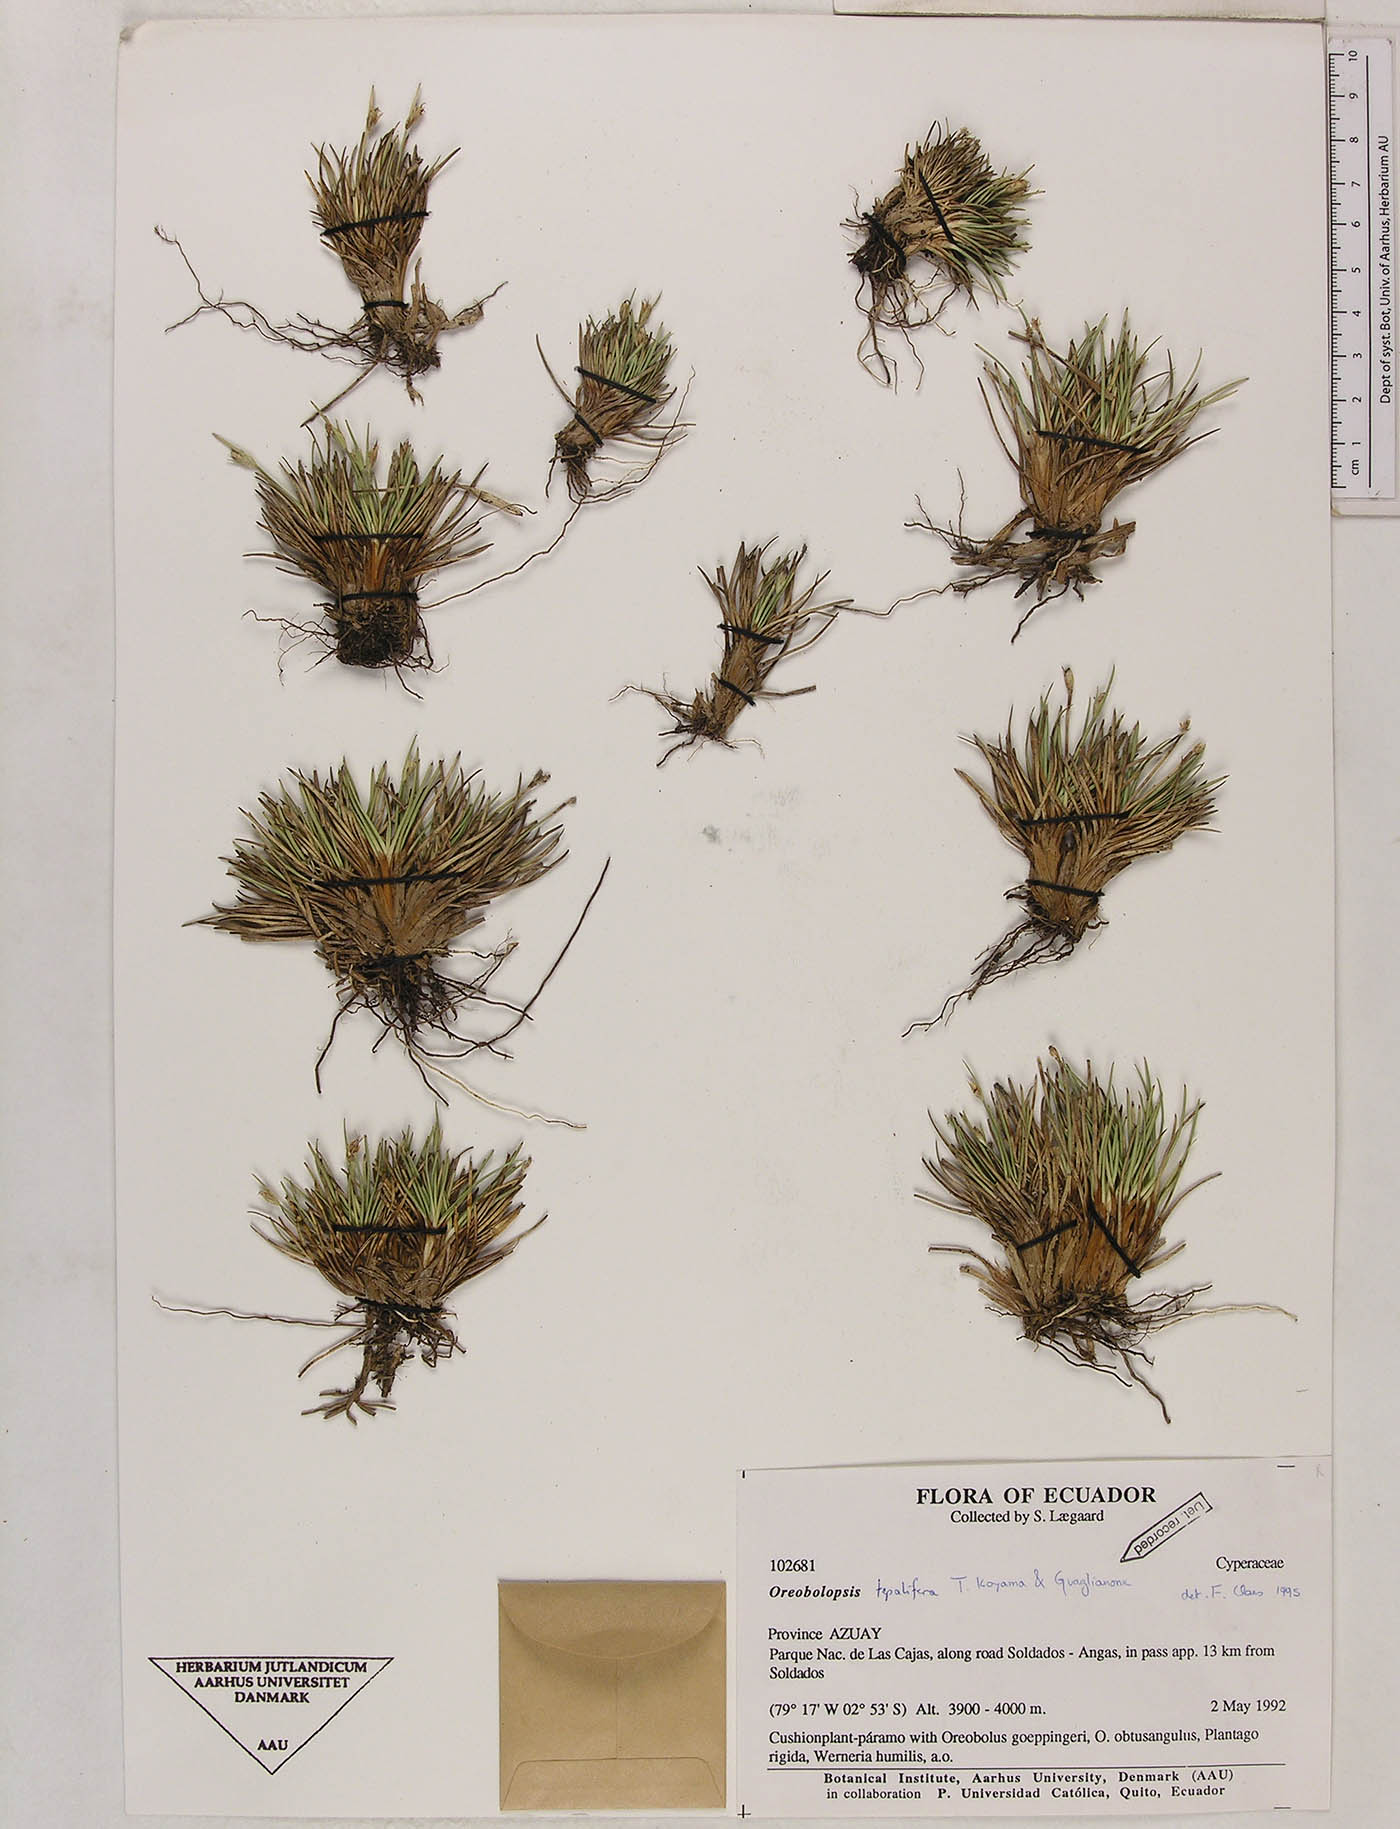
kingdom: Plantae
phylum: Tracheophyta
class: Liliopsida
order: Poales
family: Cyperaceae
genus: Trichophorum
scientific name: Trichophorum tepaliferum
